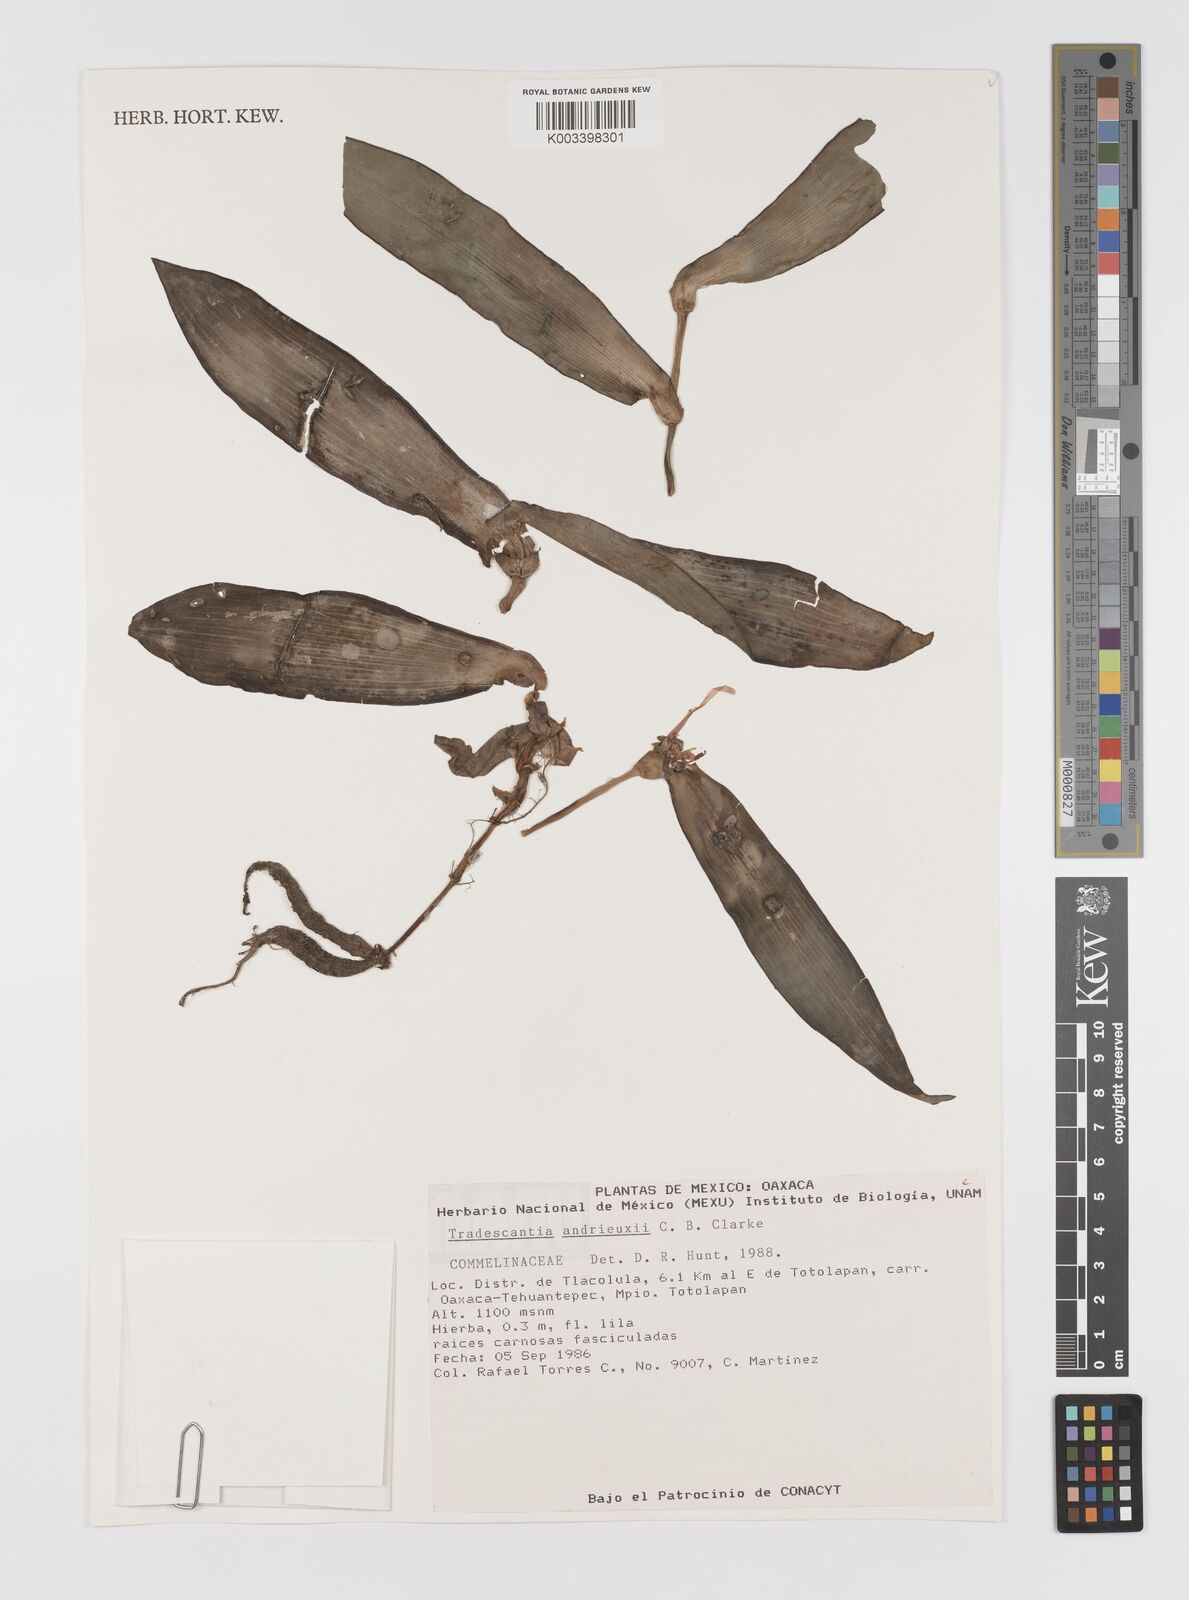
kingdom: Plantae
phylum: Tracheophyta
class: Liliopsida
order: Commelinales
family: Commelinaceae
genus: Tradescantia
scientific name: Tradescantia andrieuxii
